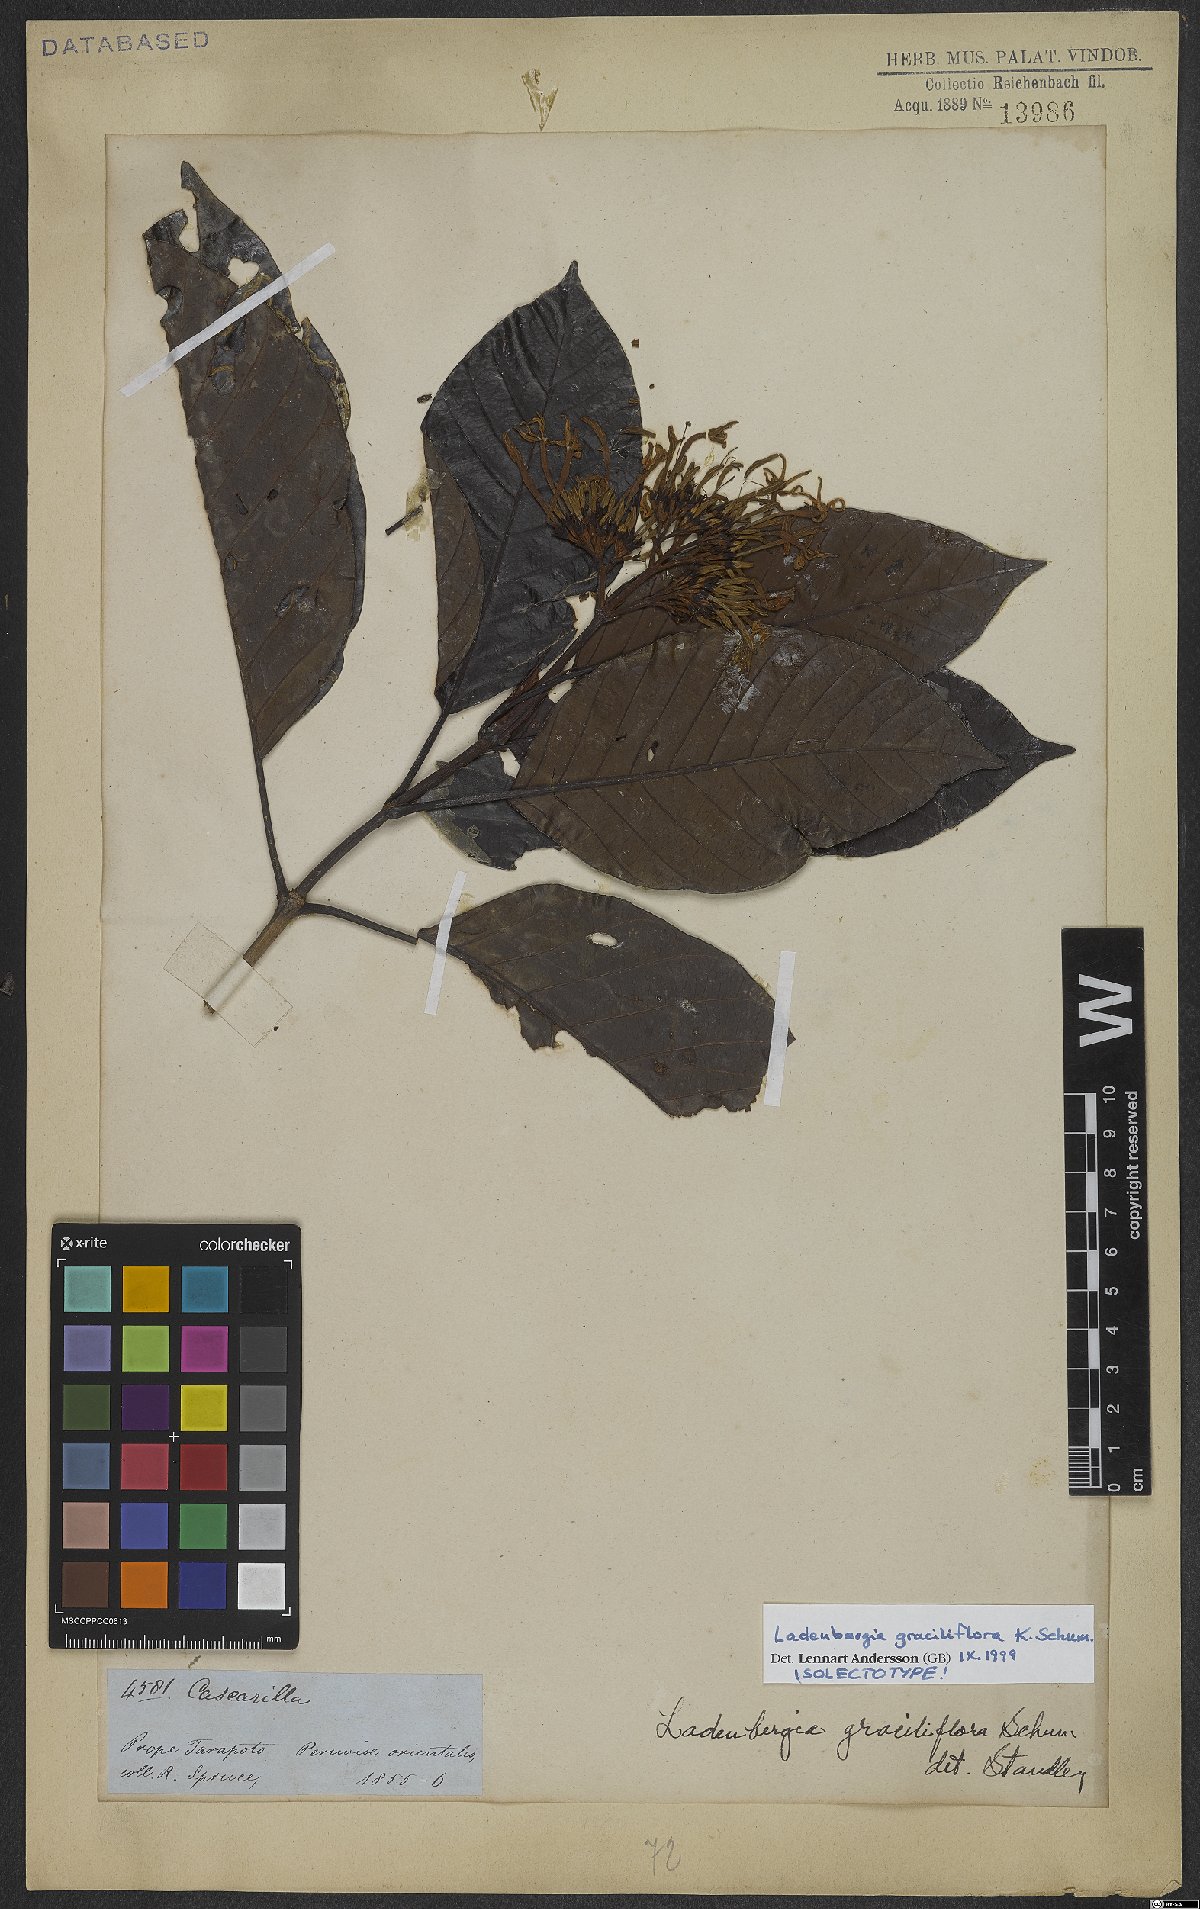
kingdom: Plantae
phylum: Tracheophyta
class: Magnoliopsida
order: Gentianales
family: Rubiaceae
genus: Ladenbergia
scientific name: Ladenbergia graciliflora
